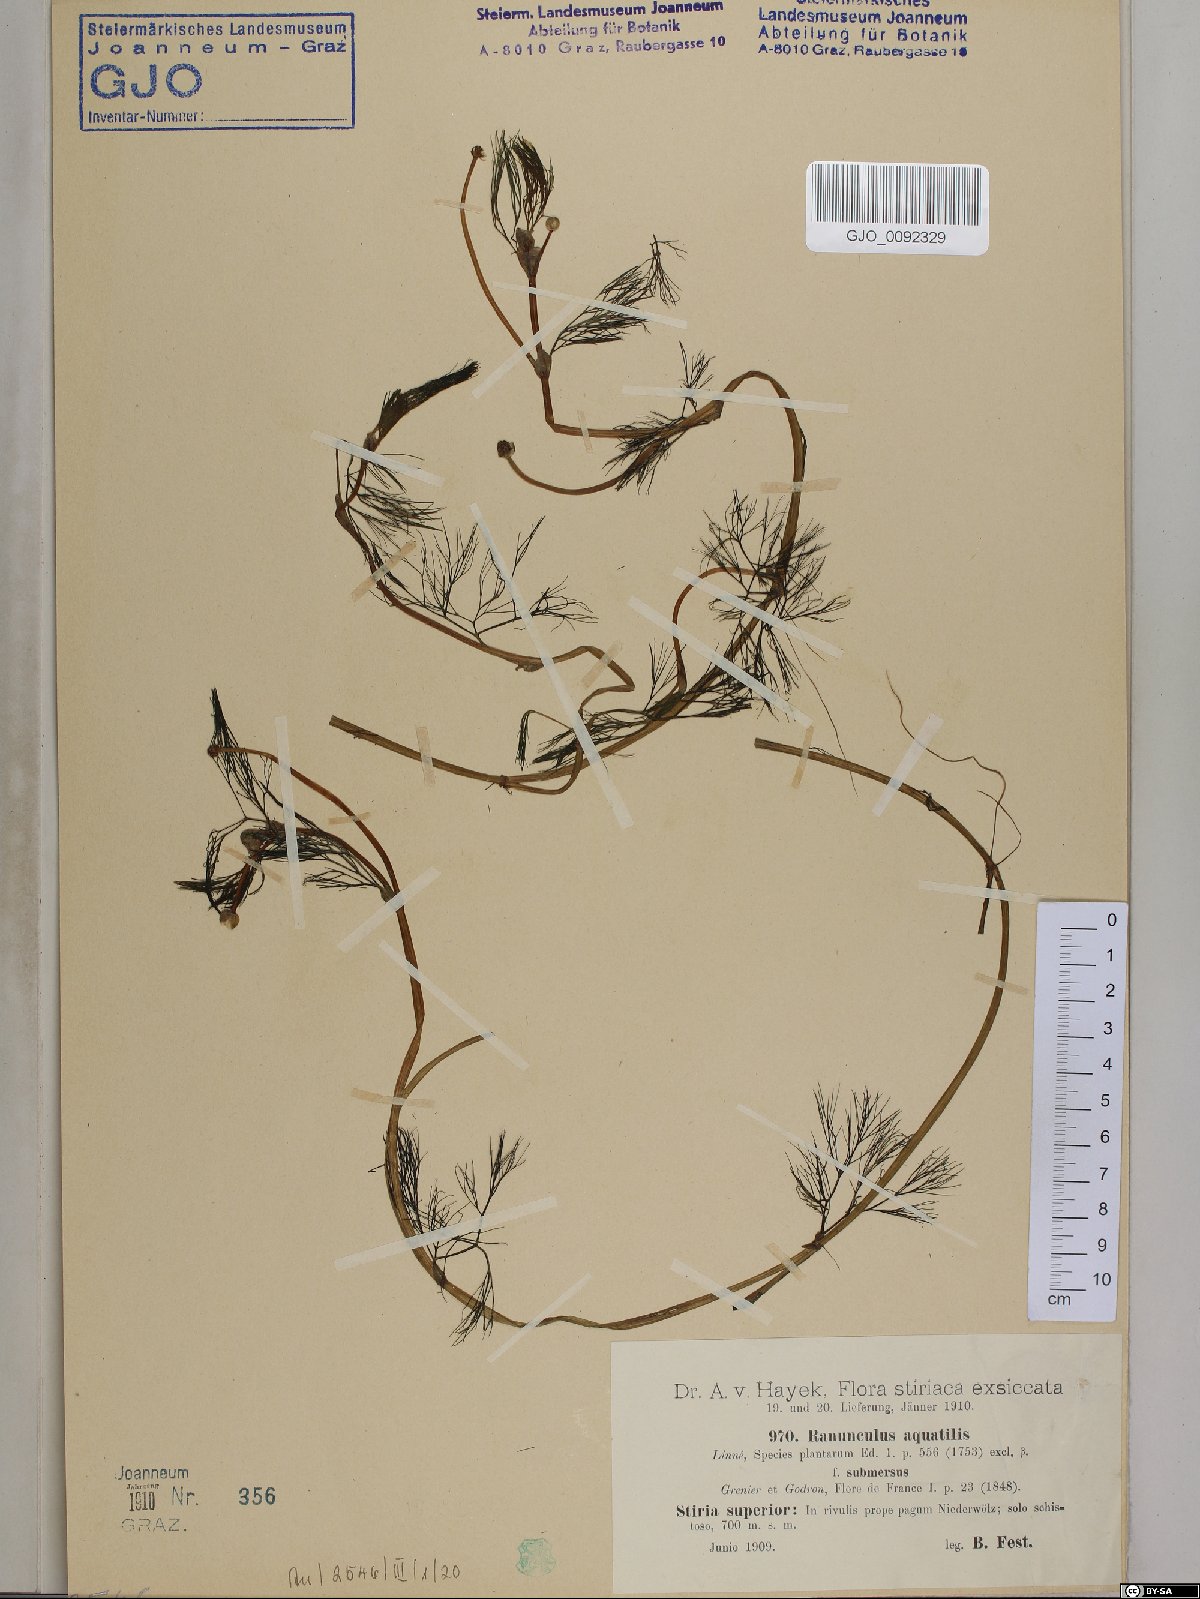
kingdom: Plantae
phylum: Tracheophyta
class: Magnoliopsida
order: Ranunculales
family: Ranunculaceae
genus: Ranunculus
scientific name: Ranunculus aquatilis
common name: Common water-crowfoot
